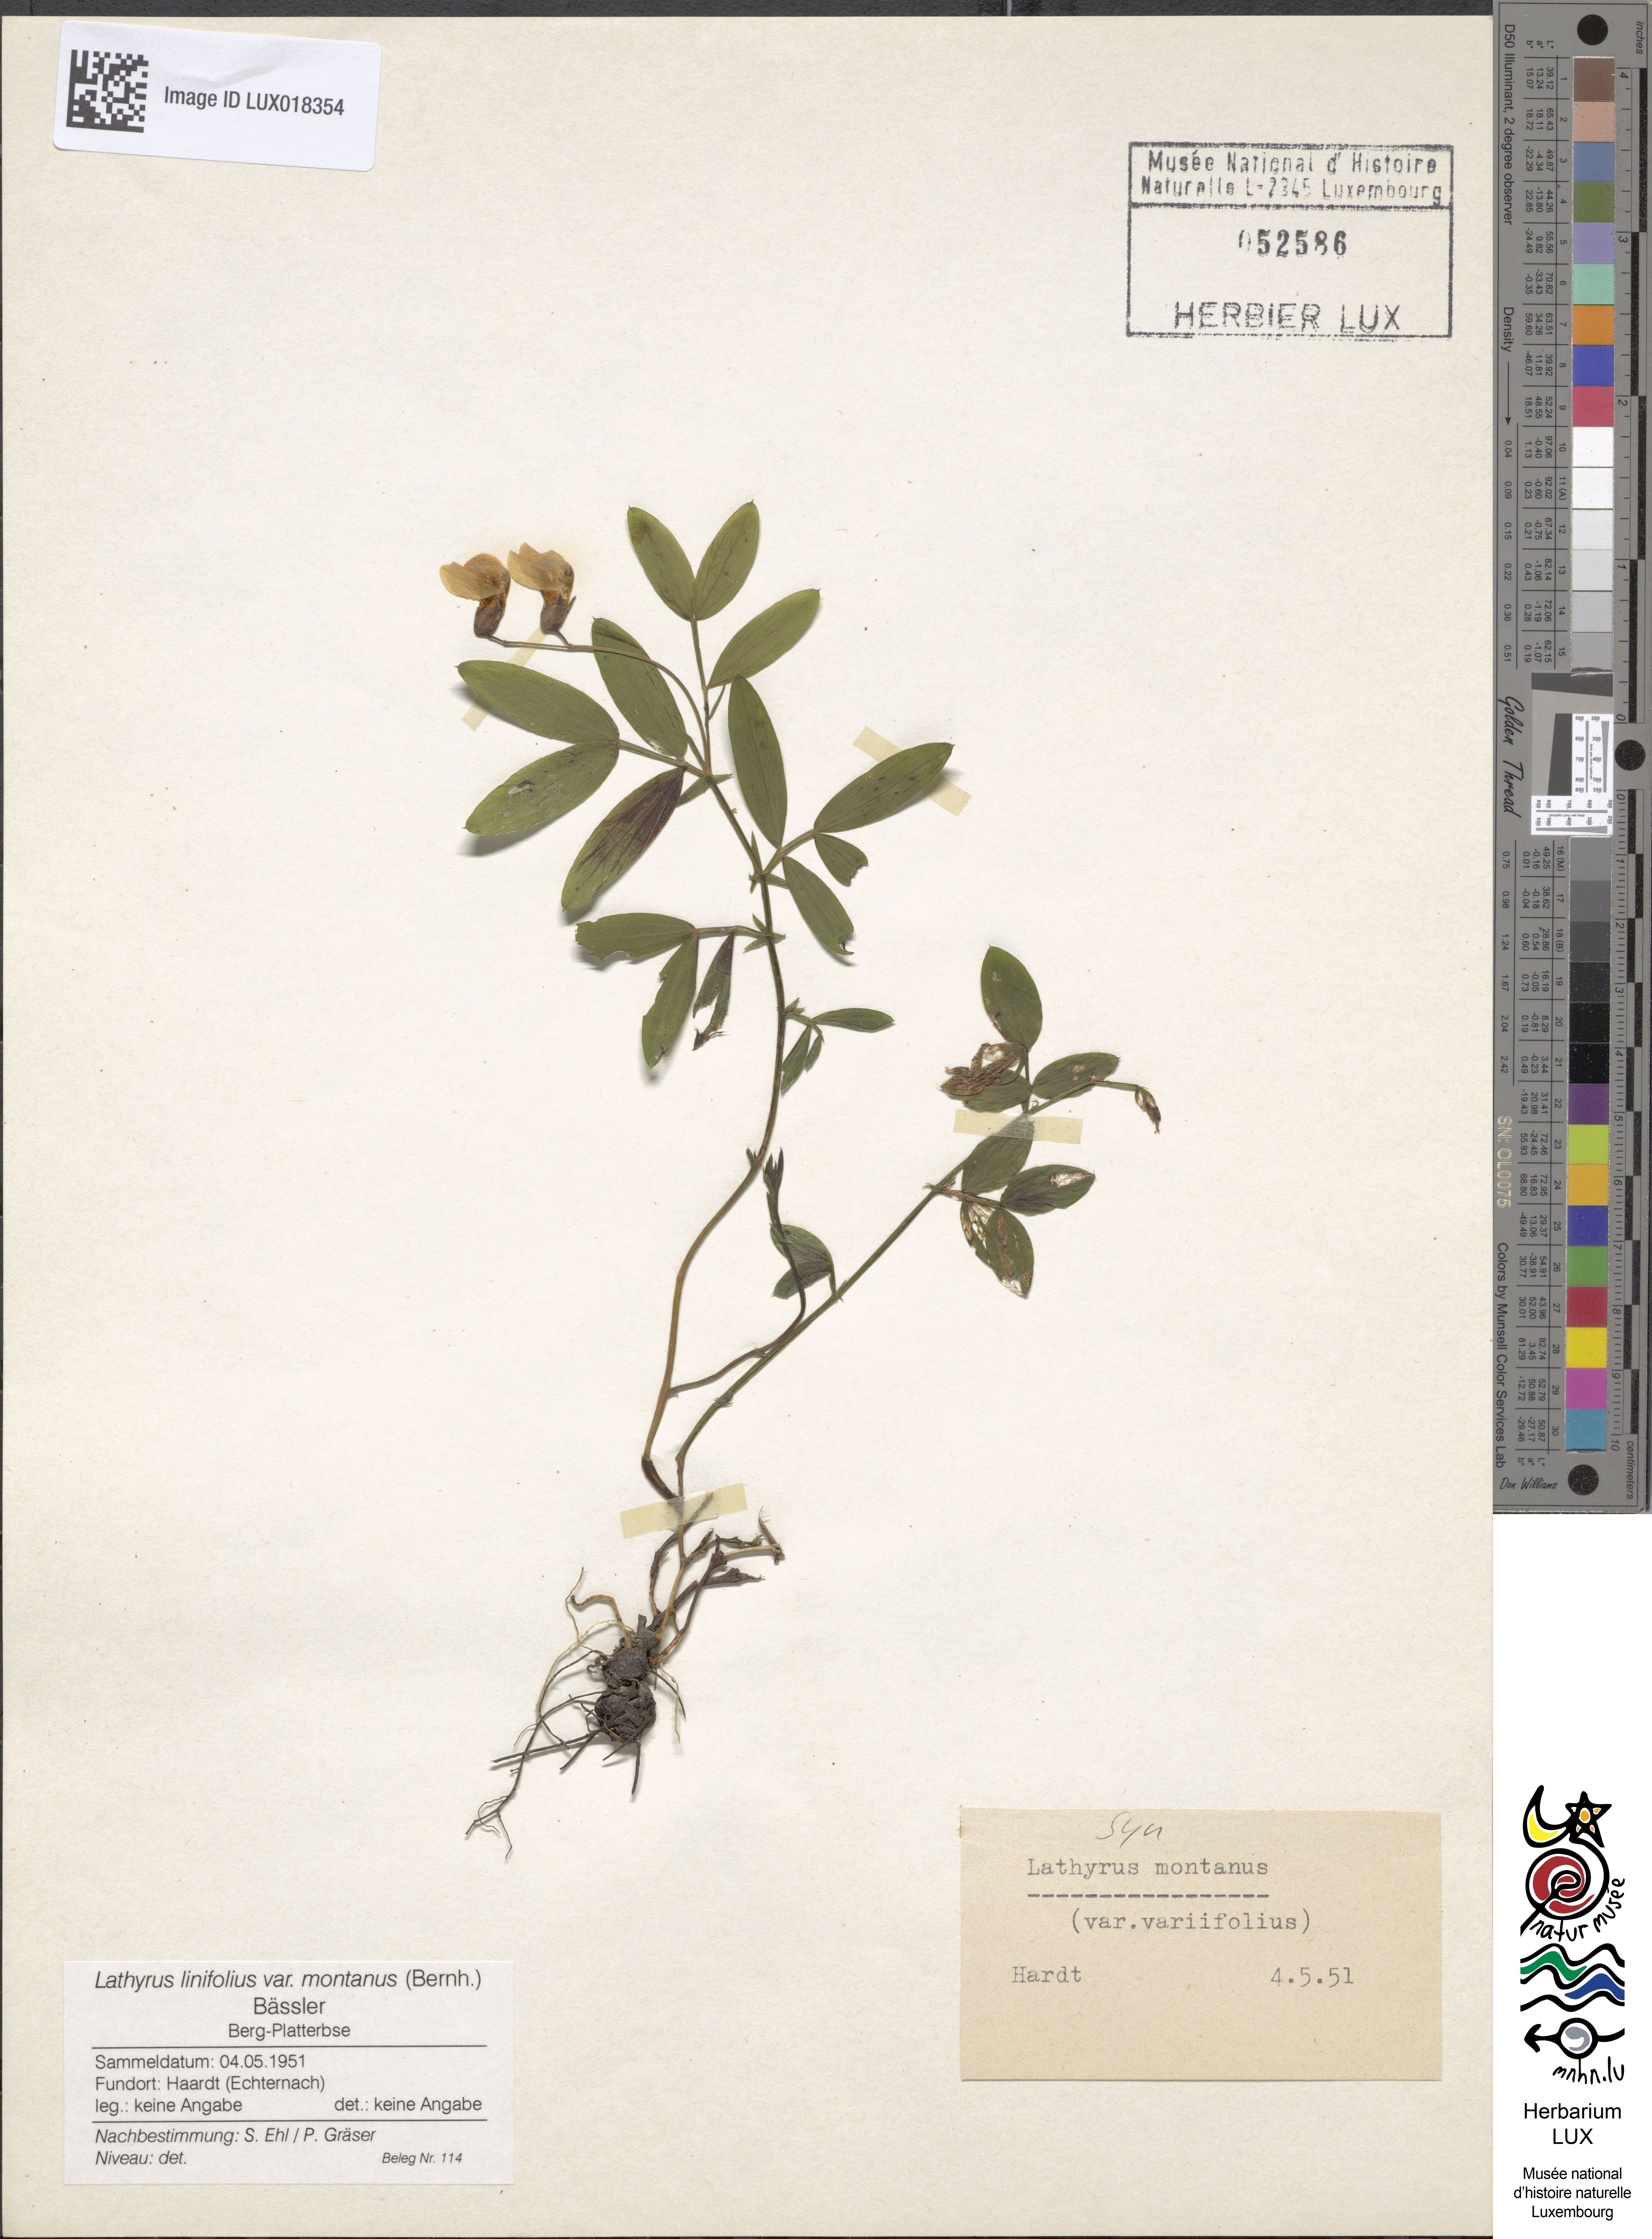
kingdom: Plantae
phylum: Tracheophyta
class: Magnoliopsida
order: Fabales
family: Fabaceae
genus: Lathyrus
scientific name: Lathyrus linifolius
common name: Bitter-vetch
